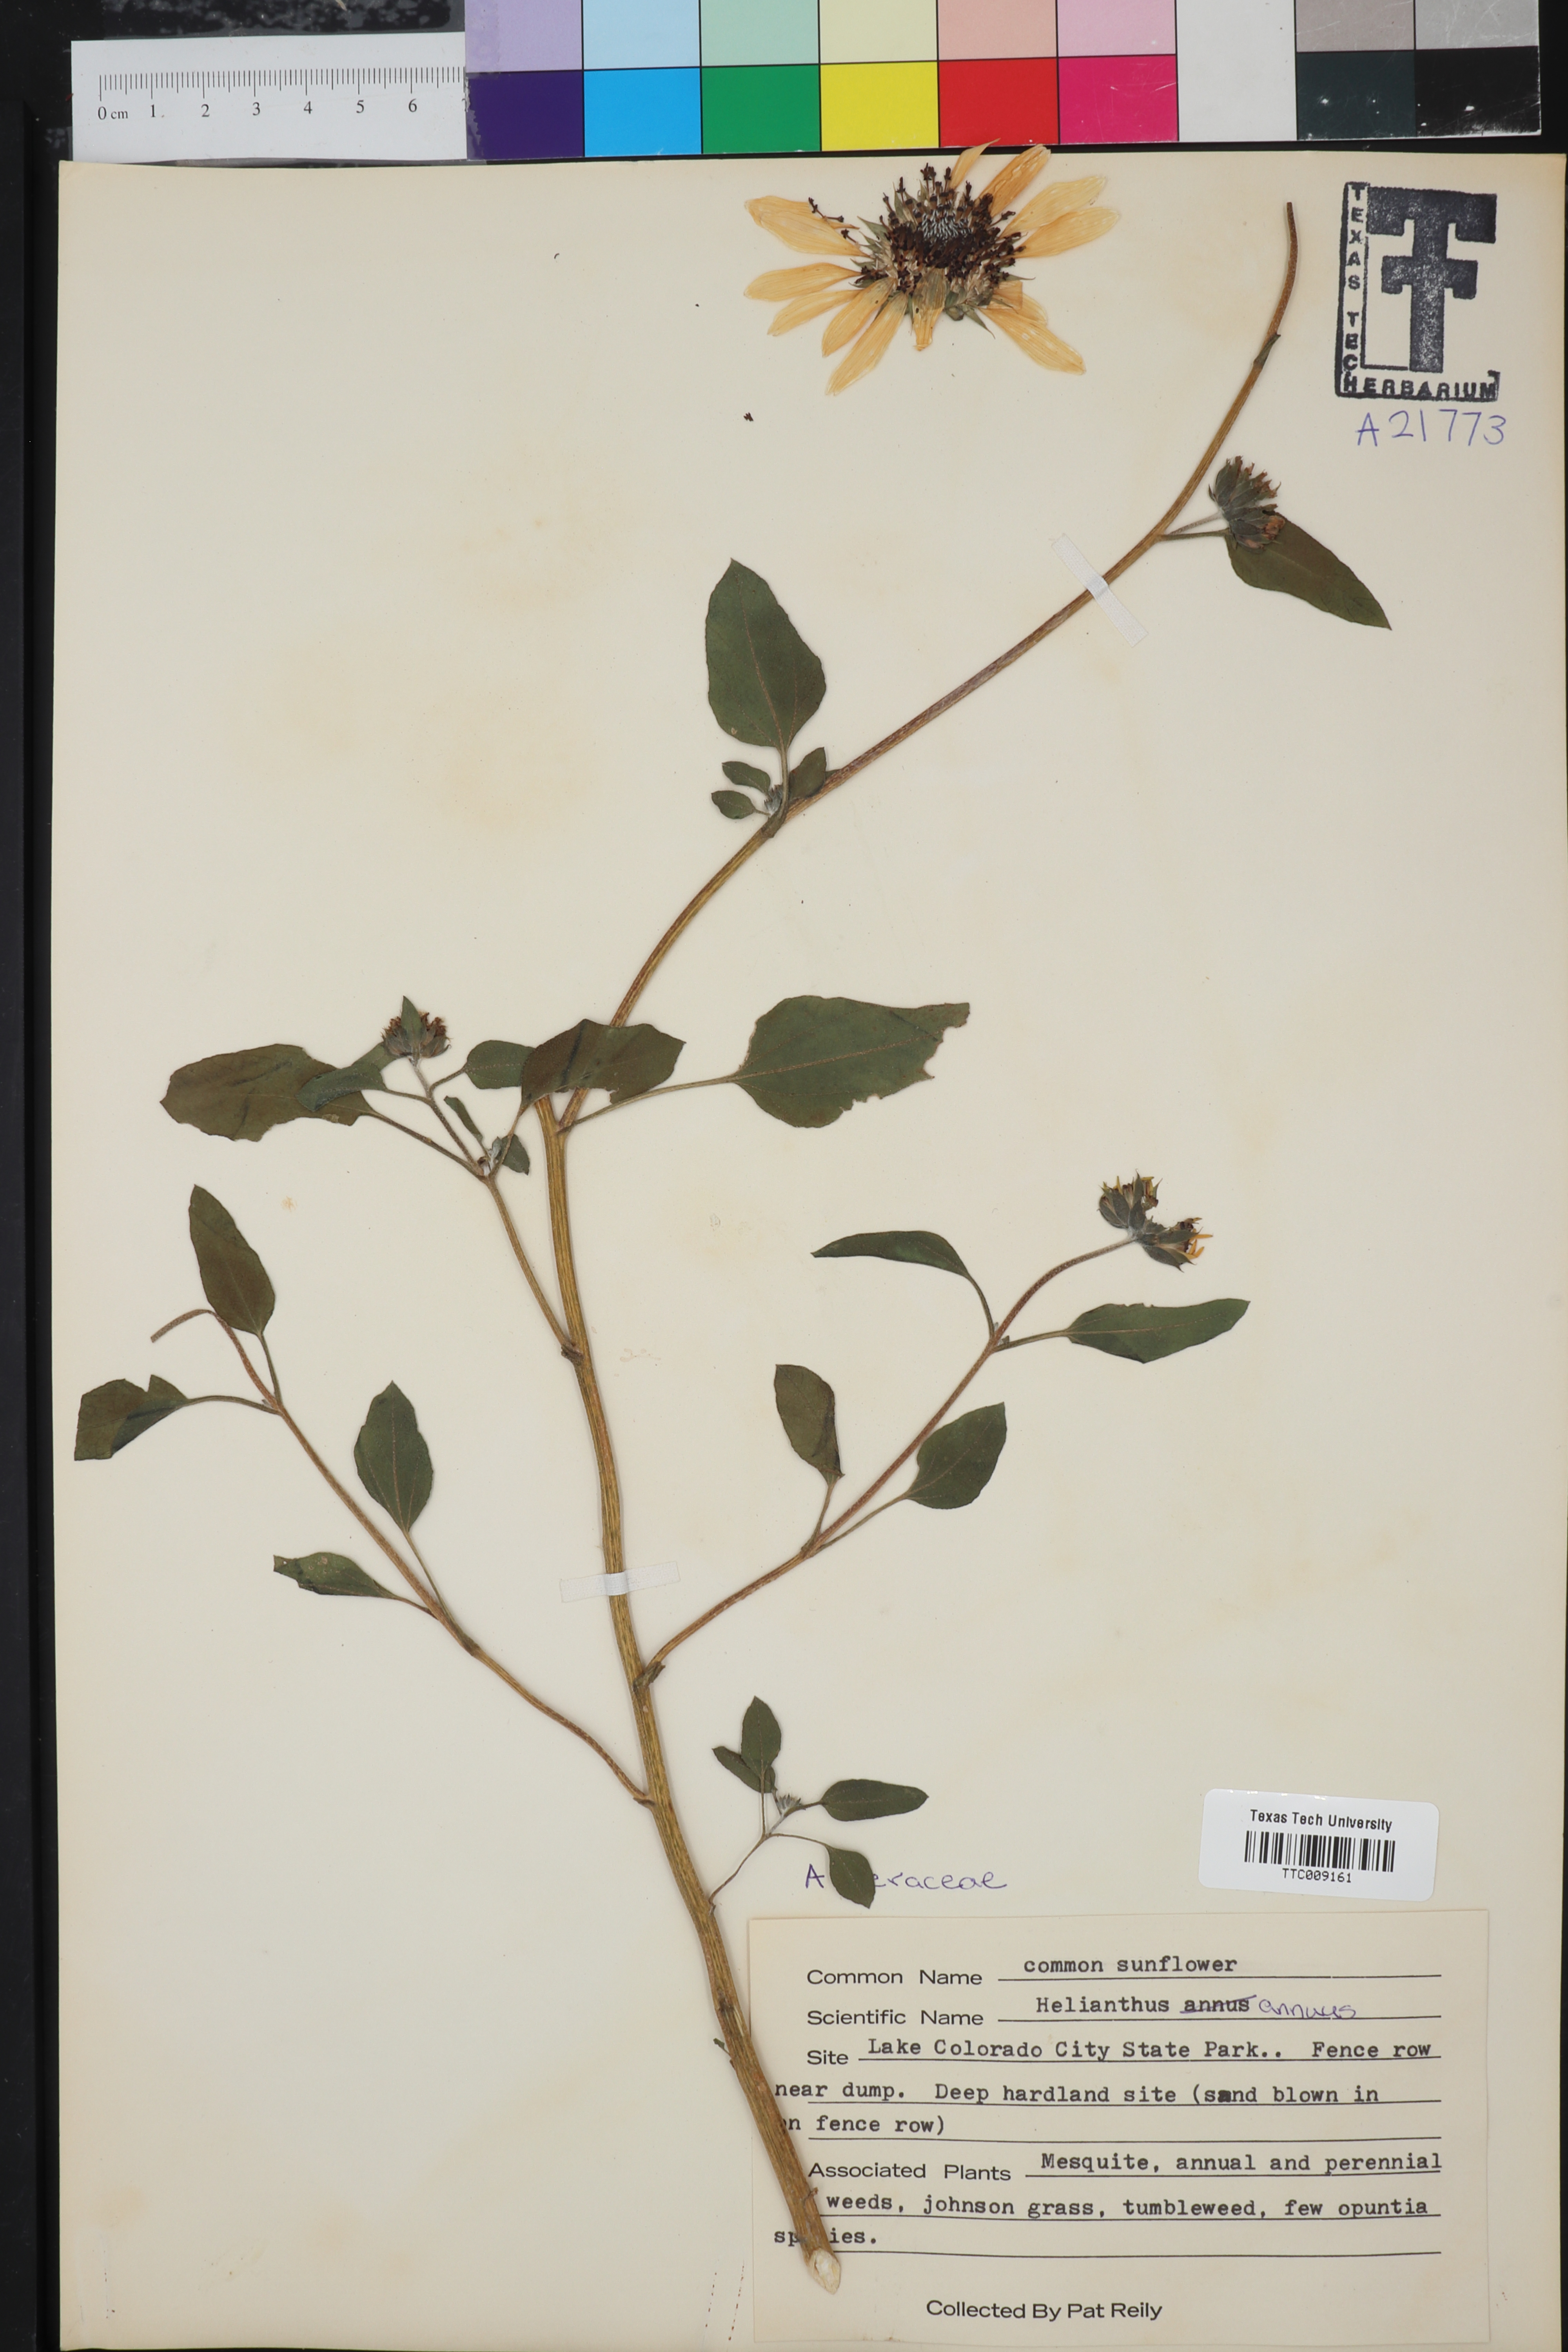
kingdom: Plantae
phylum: Tracheophyta
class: Magnoliopsida
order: Asterales
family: Asteraceae
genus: Helianthus
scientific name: Helianthus annuus
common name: Sunflower
